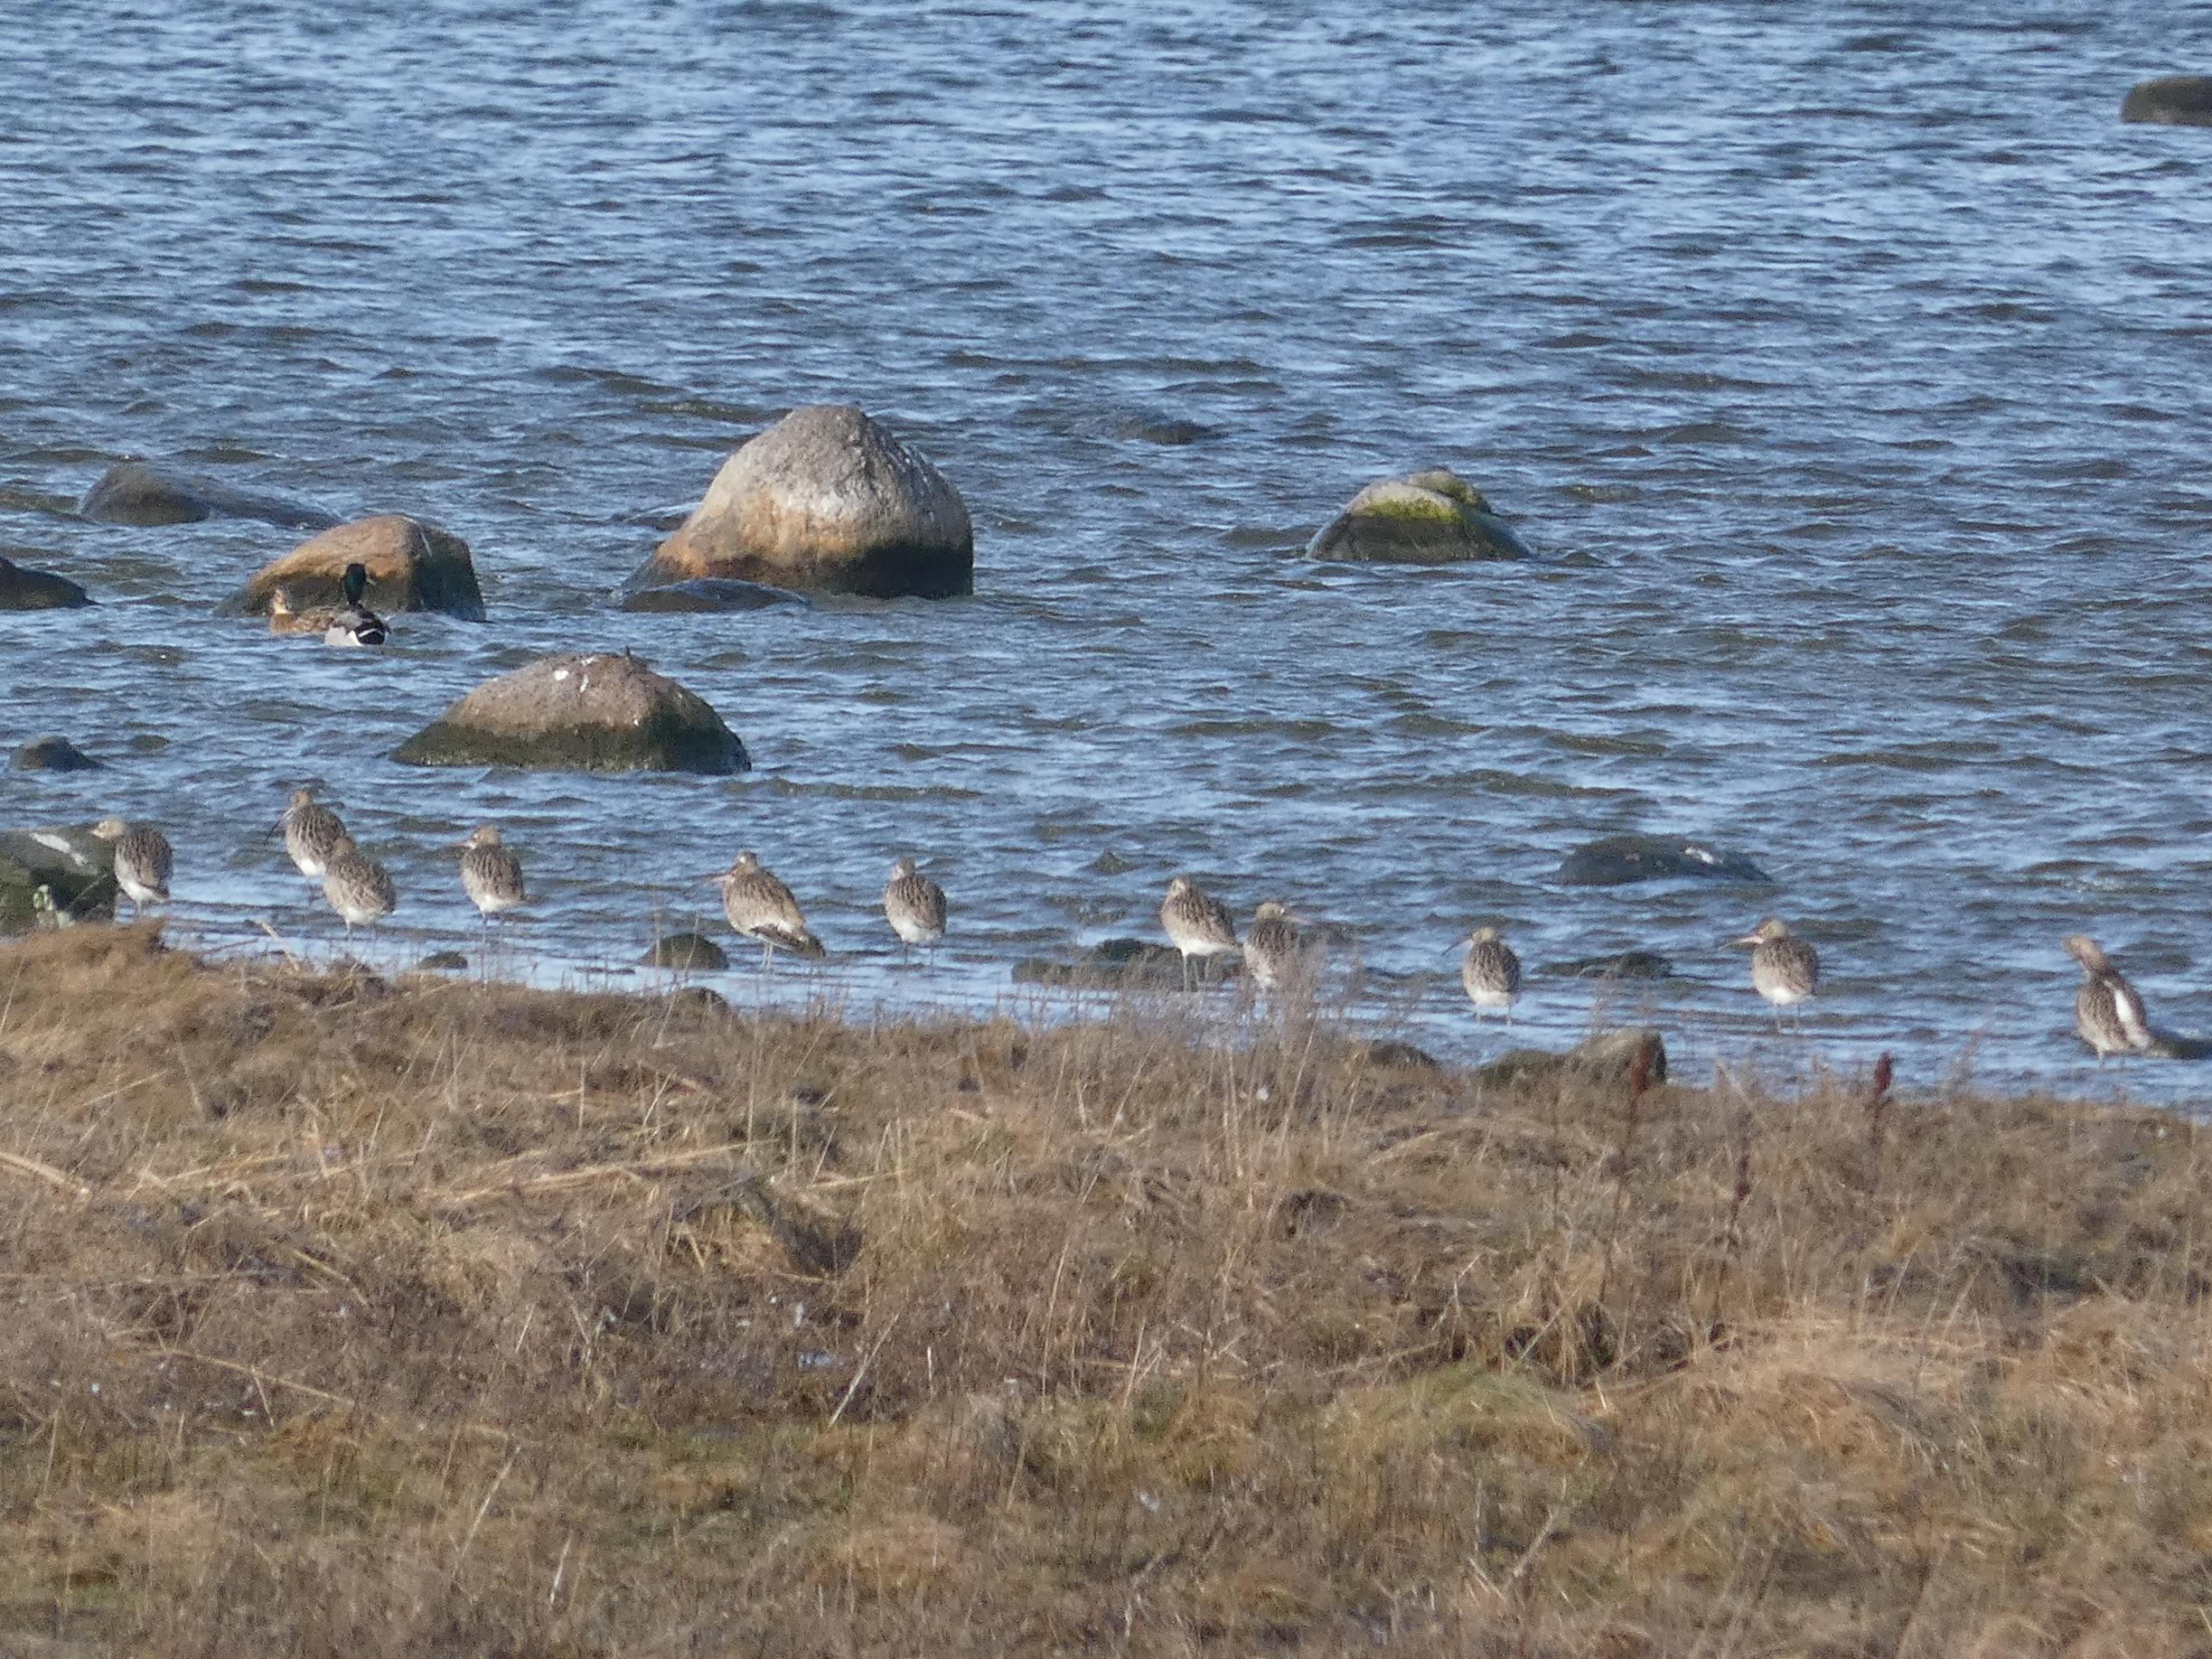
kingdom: Animalia
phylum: Chordata
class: Aves
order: Charadriiformes
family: Scolopacidae
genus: Numenius
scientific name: Numenius arquata
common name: Storspove
